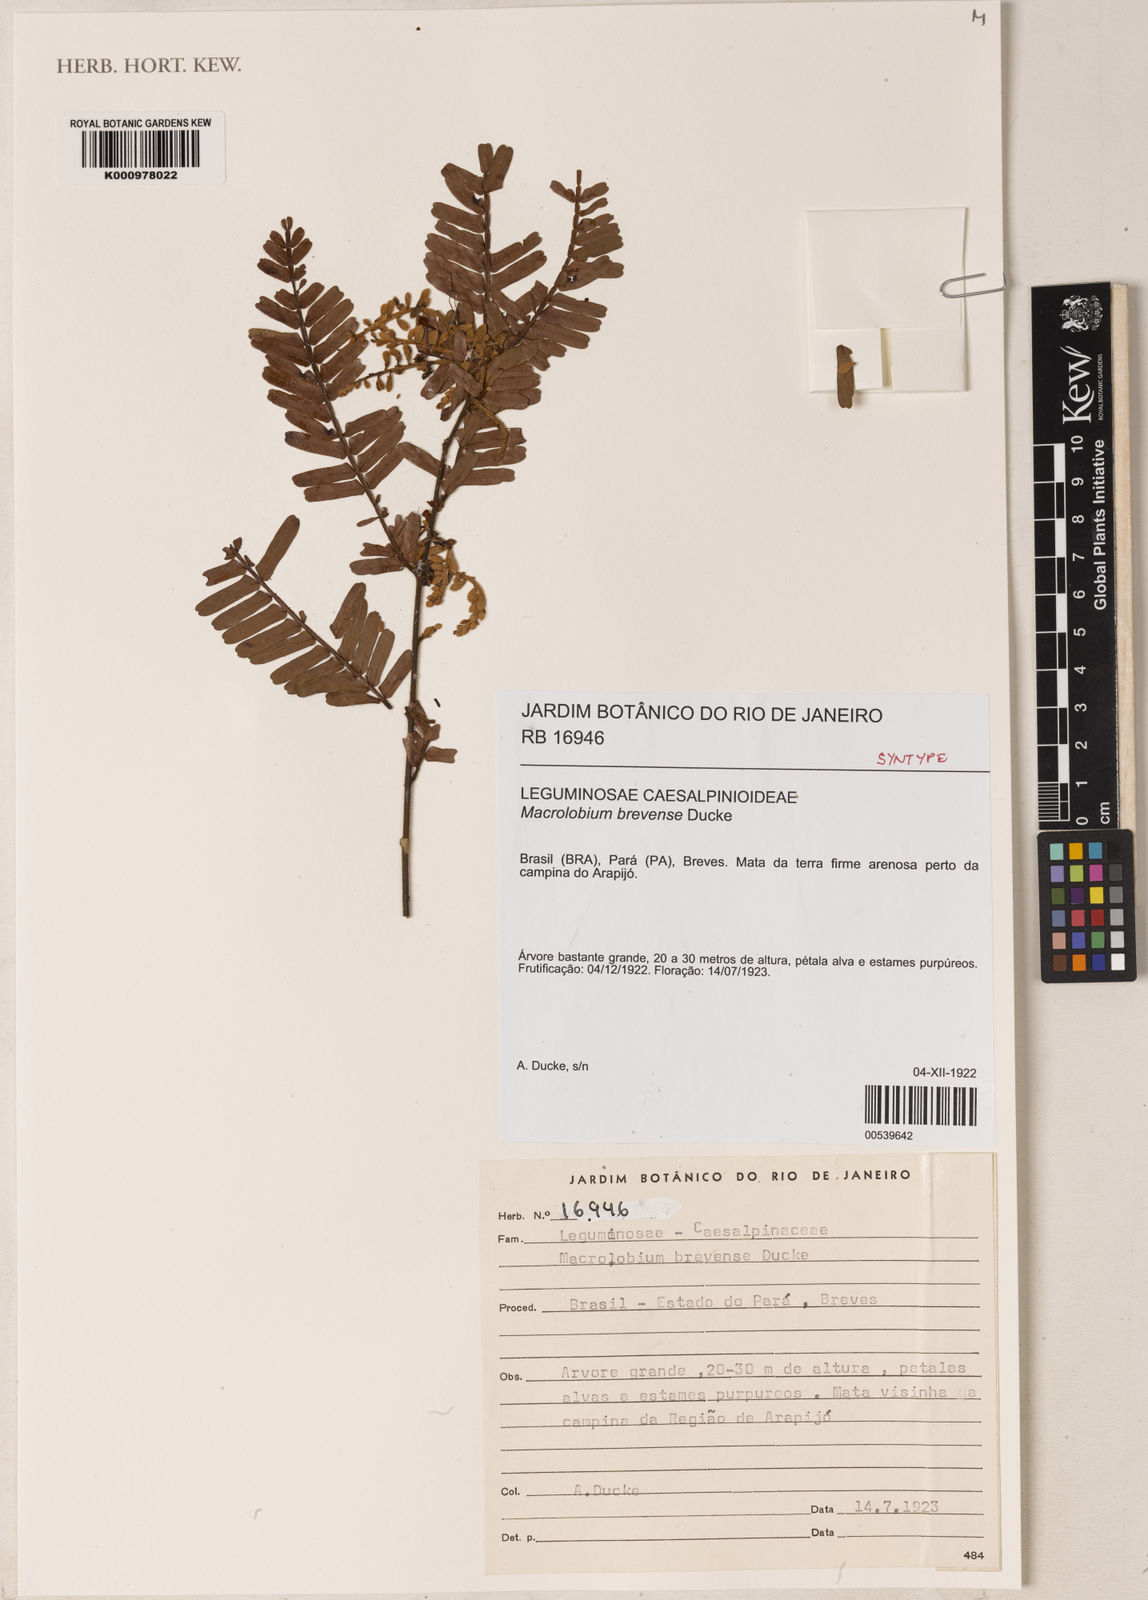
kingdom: Plantae
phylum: Tracheophyta
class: Magnoliopsida
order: Fabales
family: Fabaceae
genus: Macrolobium
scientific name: Macrolobium brevense
